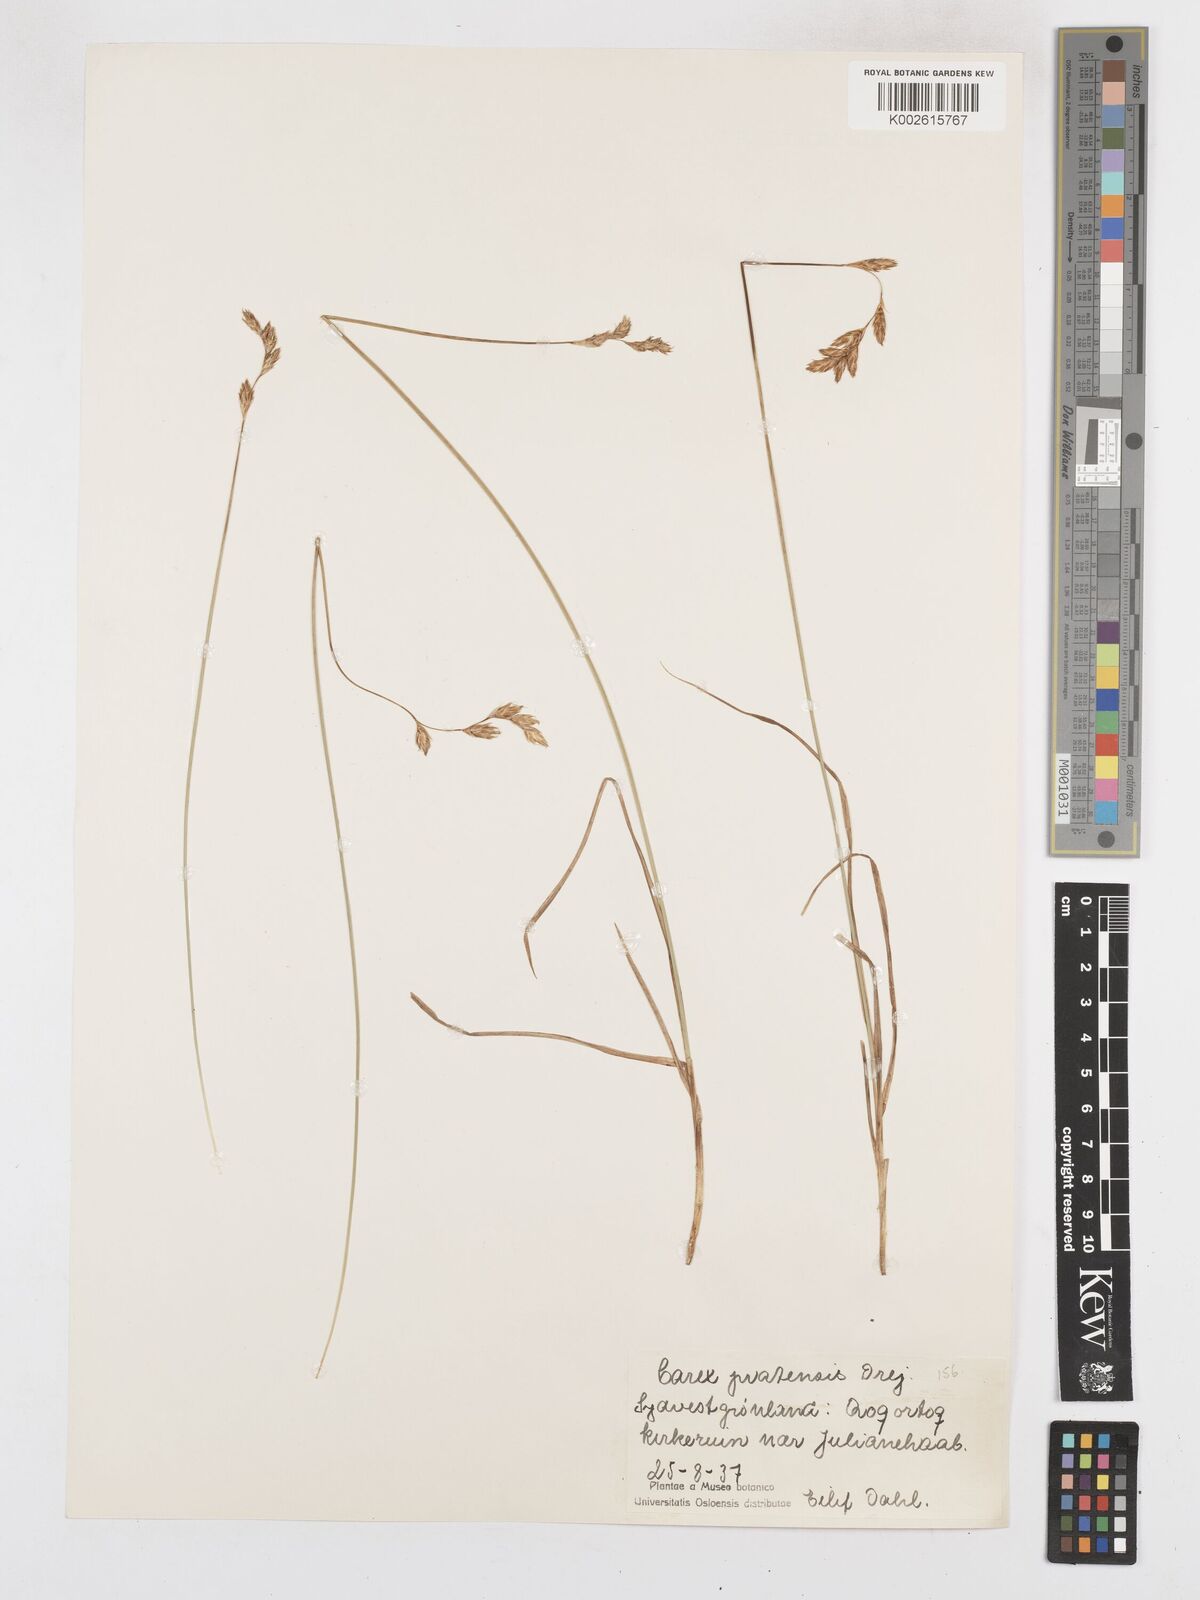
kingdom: Plantae
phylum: Tracheophyta
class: Liliopsida
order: Poales
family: Cyperaceae
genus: Carex
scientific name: Carex praticola
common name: Large-fruited oval sedge
